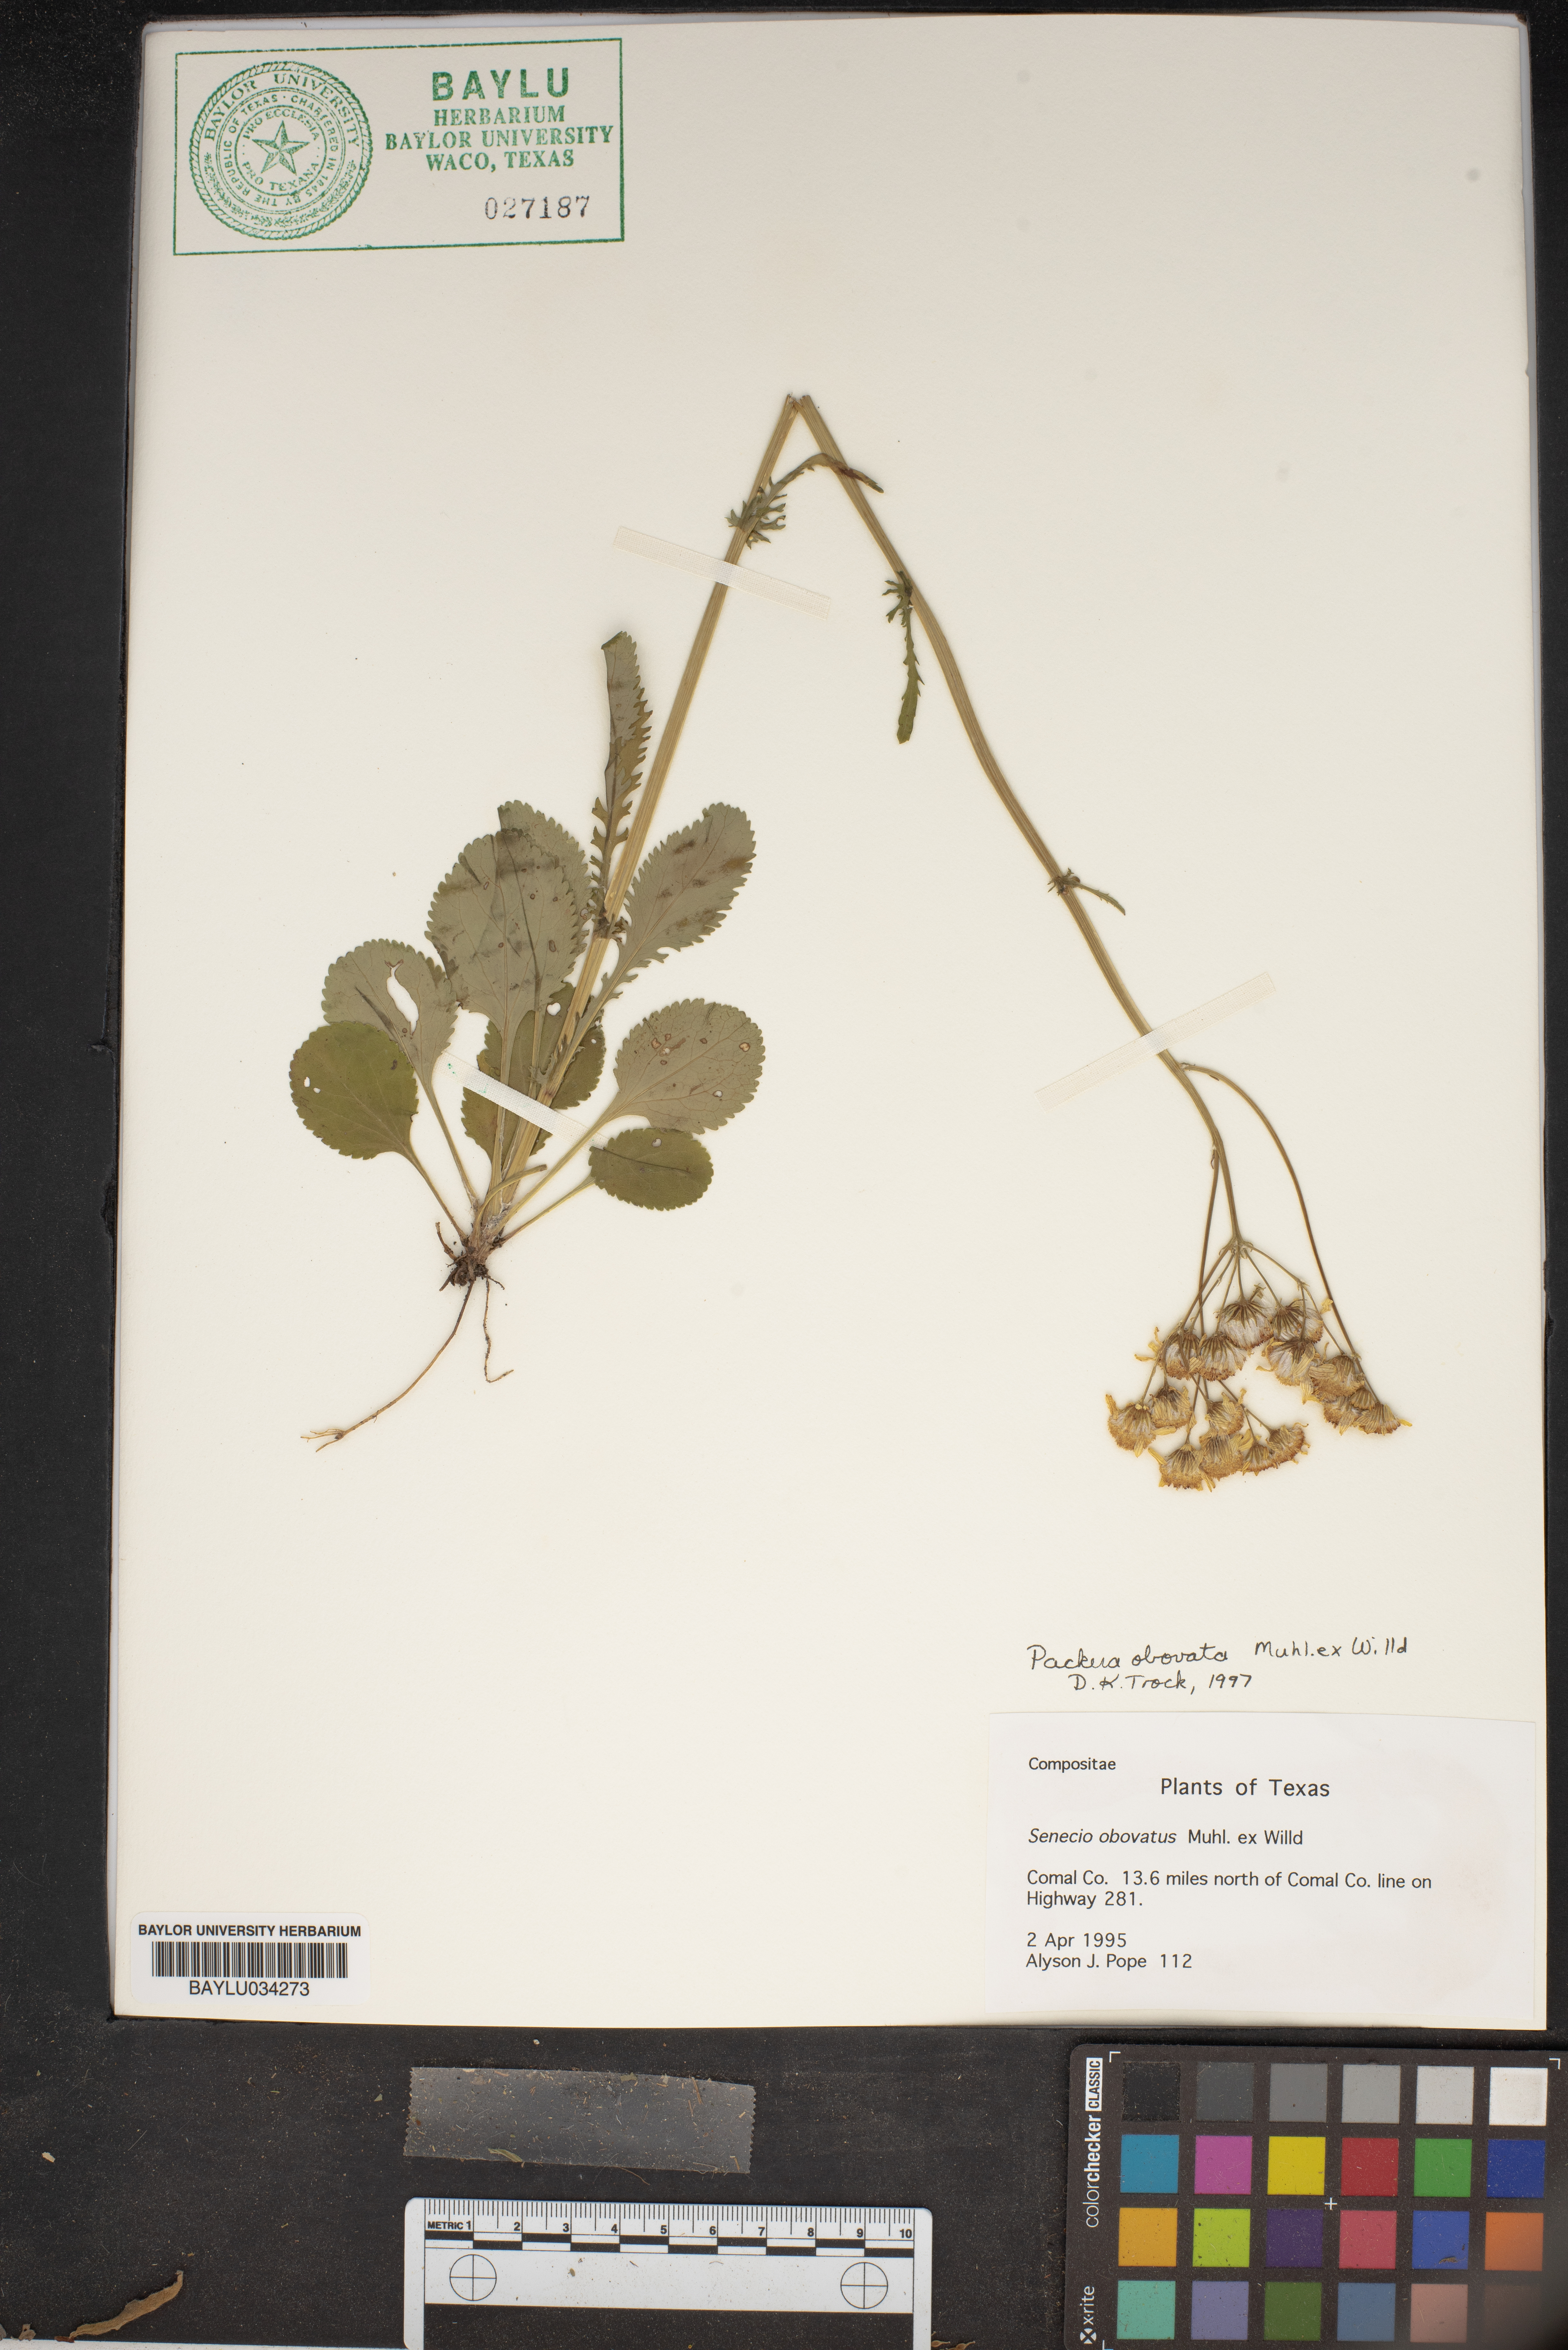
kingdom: Plantae
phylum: Tracheophyta
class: Magnoliopsida
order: Asterales
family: Asteraceae
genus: Packera
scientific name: Packera obovata
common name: Round-leaf ragwort
